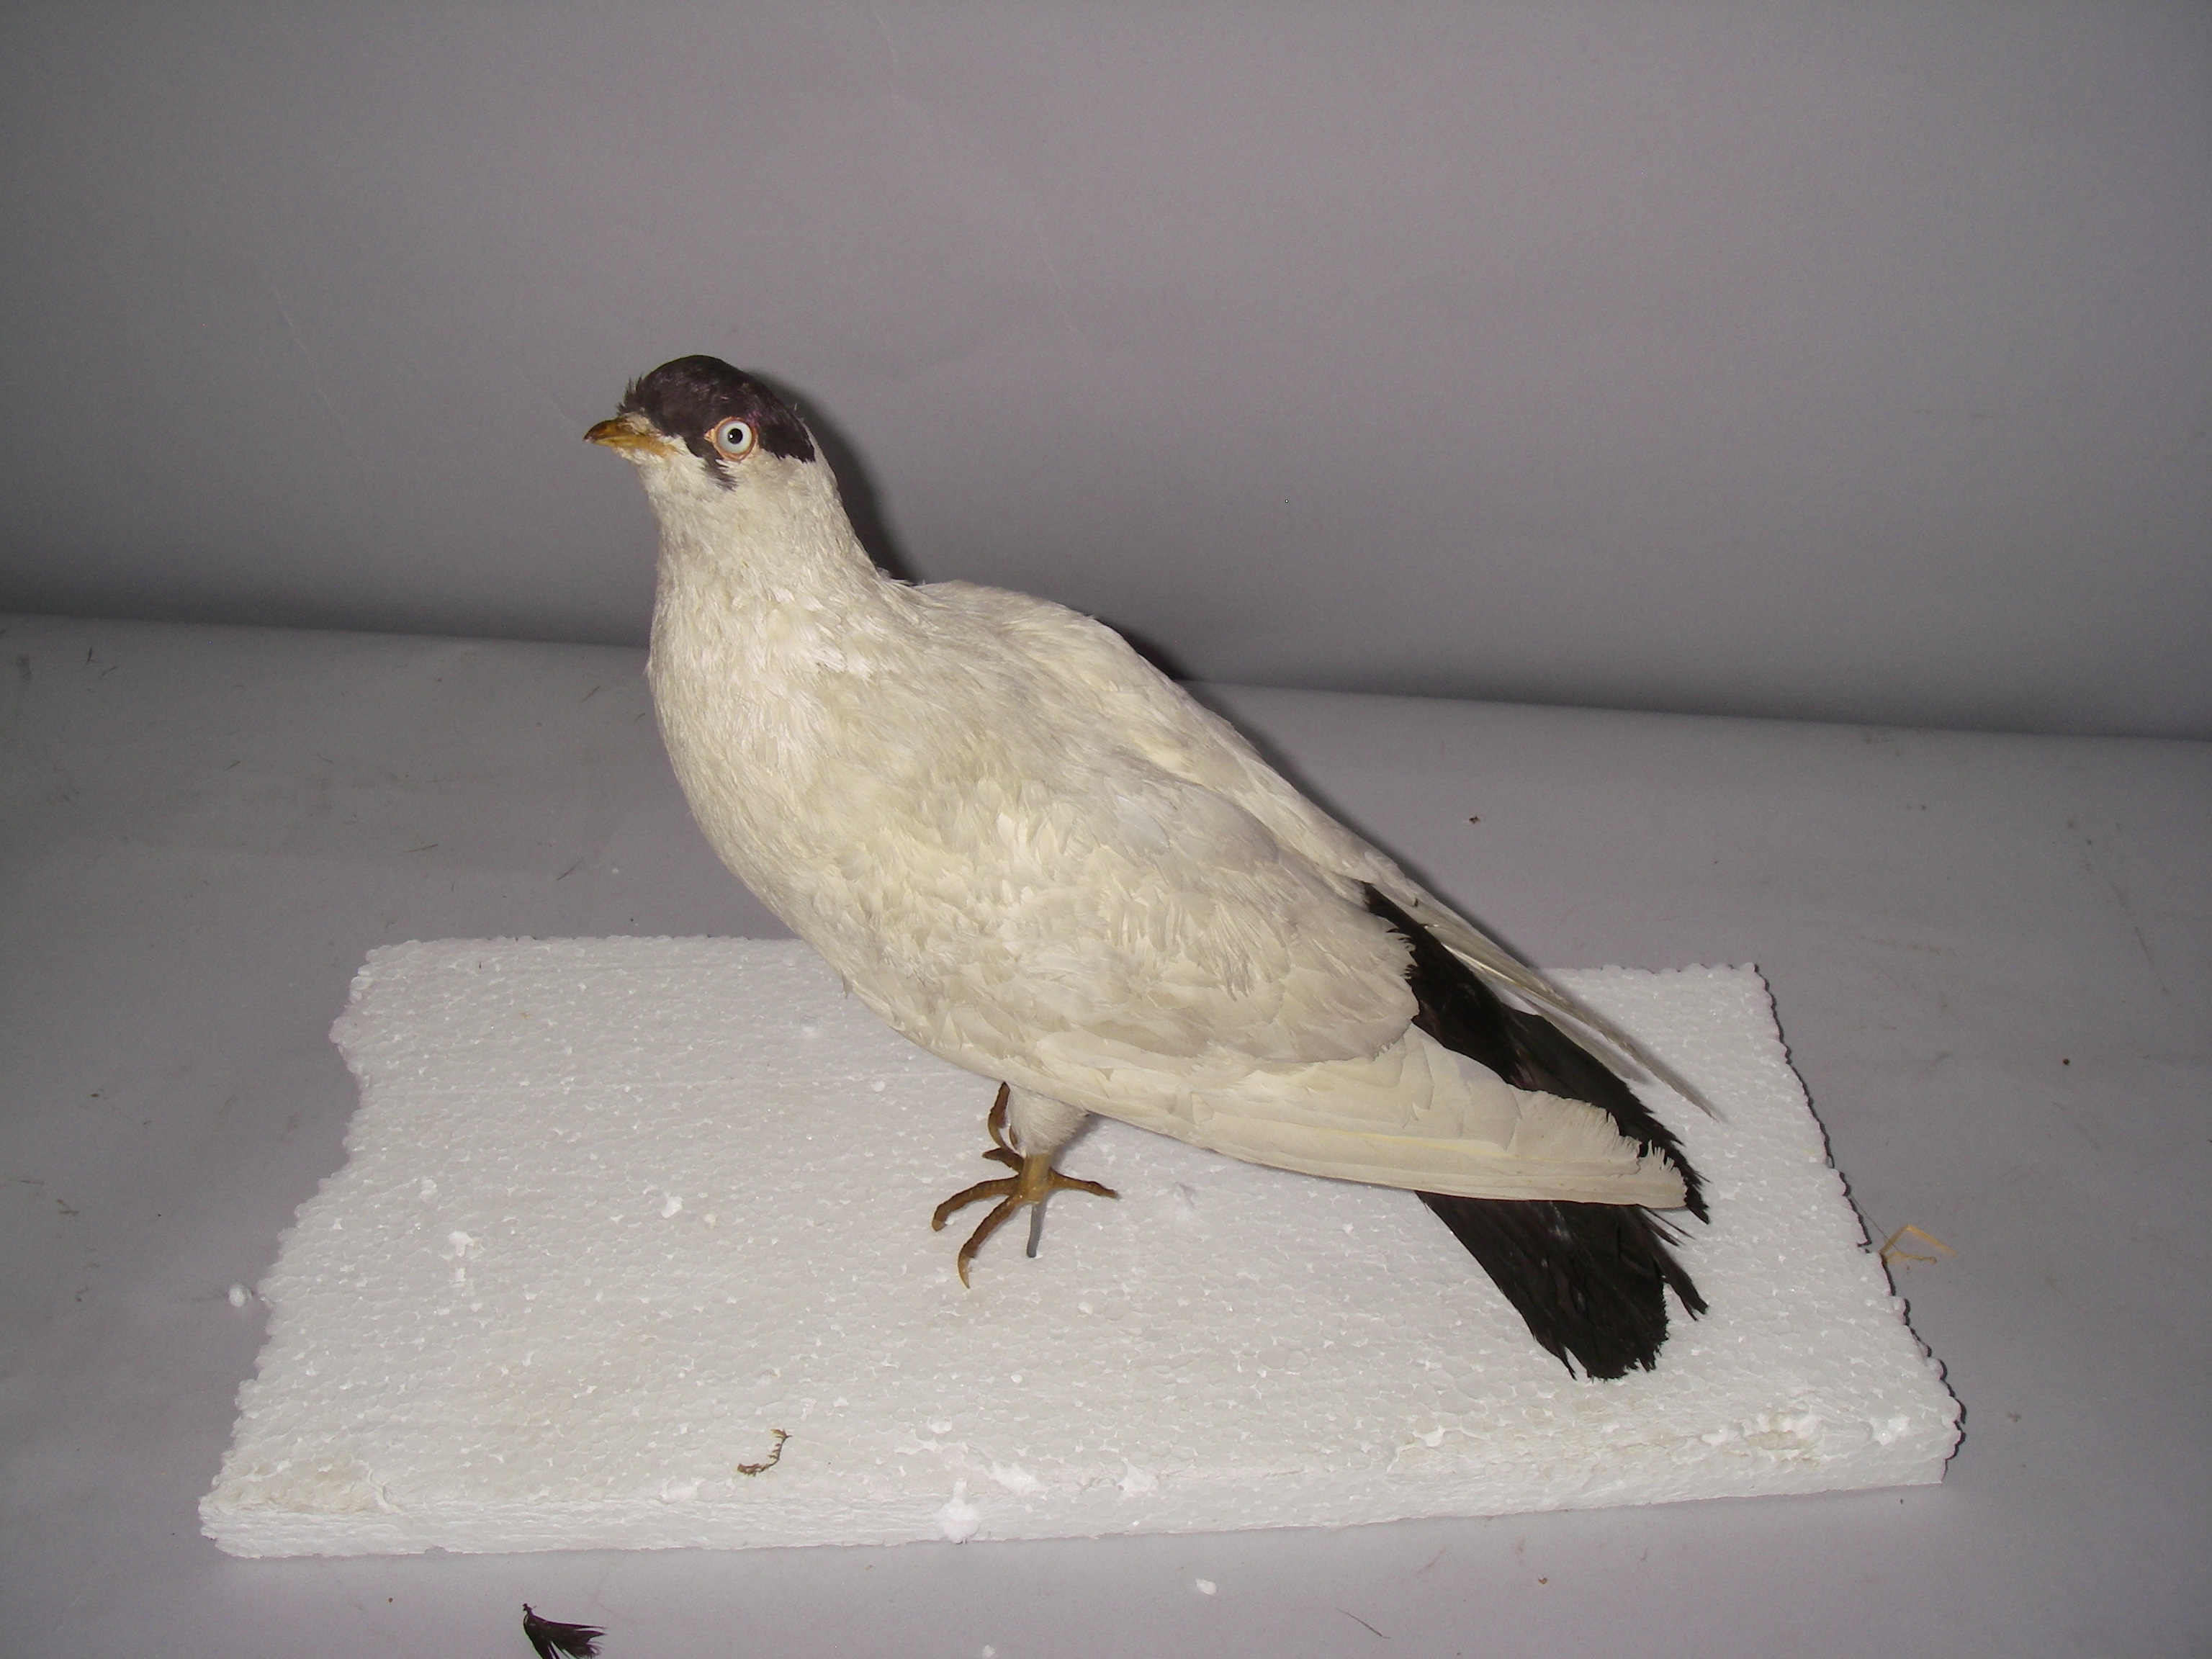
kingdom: Animalia
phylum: Chordata
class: Aves
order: Columbiformes
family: Columbidae
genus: Columba
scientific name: Columba livia
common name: Rock pigeon
